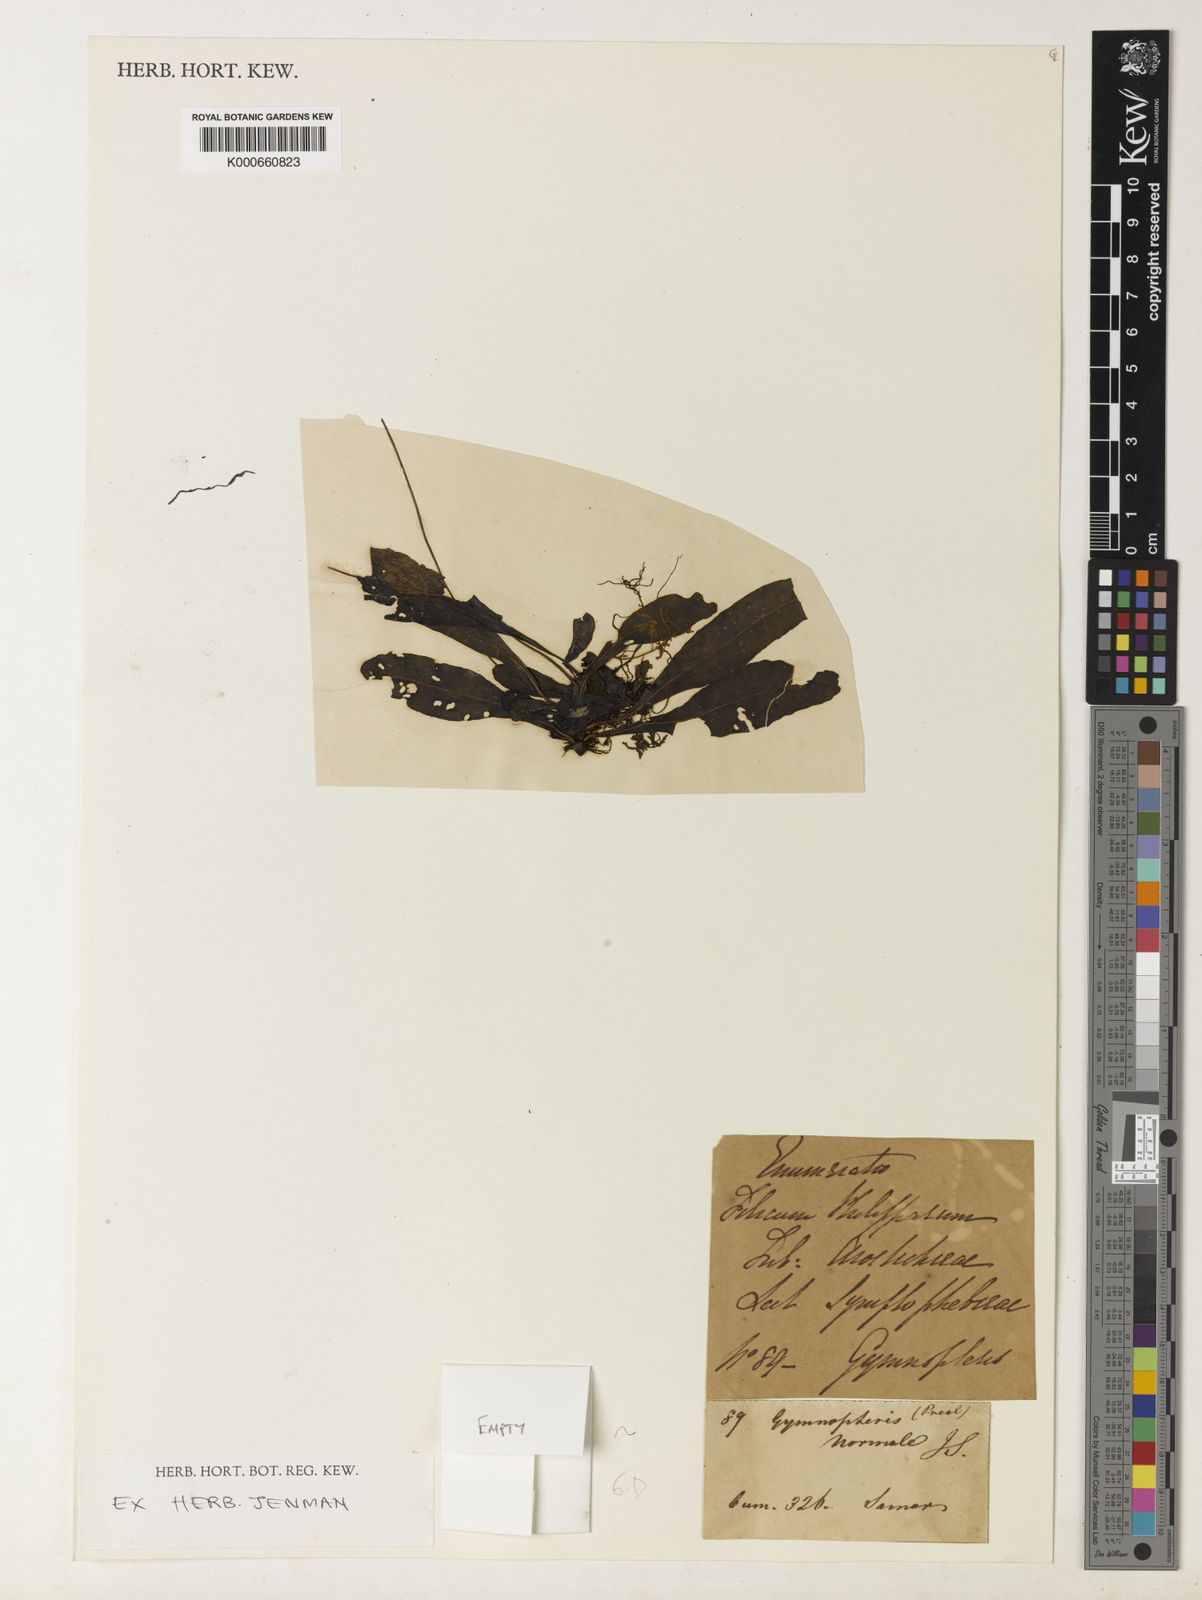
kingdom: Plantae
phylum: Tracheophyta
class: Polypodiopsida
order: Polypodiales
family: Polypodiaceae
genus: Leptochilus
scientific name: Leptochilus
